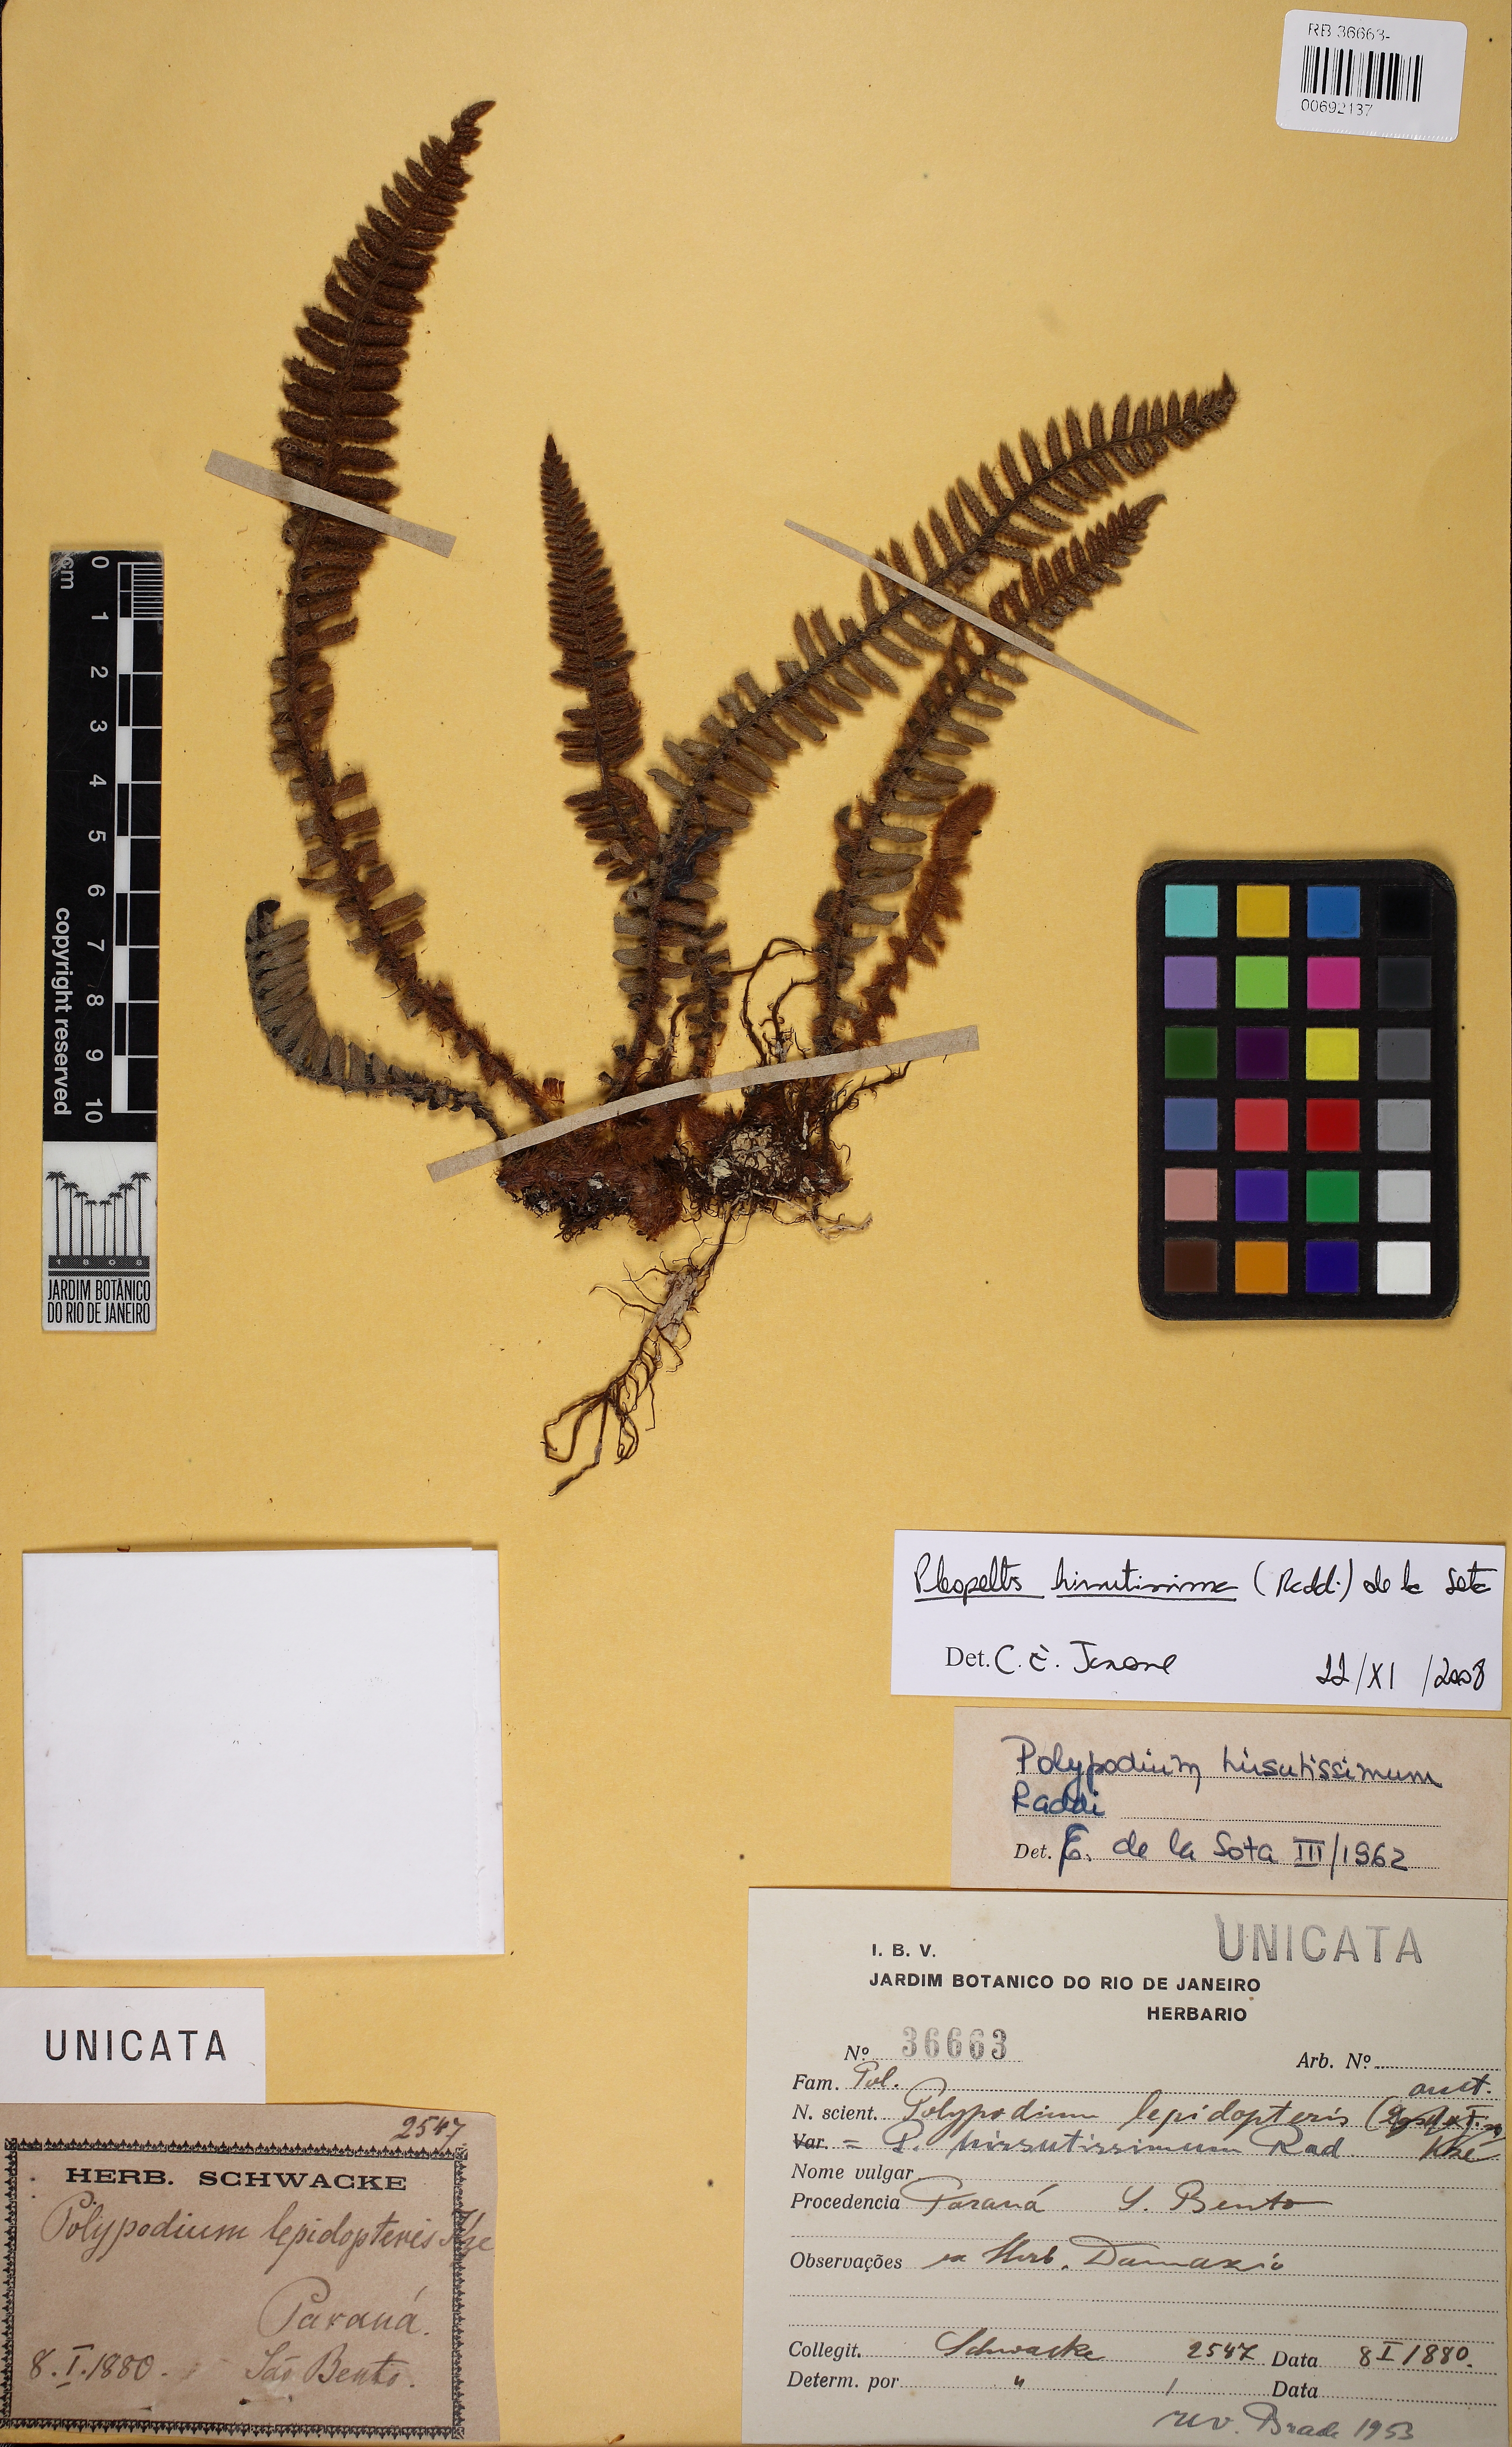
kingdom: Plantae
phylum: Tracheophyta
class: Polypodiopsida
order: Polypodiales
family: Polypodiaceae
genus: Pleopeltis
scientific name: Pleopeltis hirsutissima
